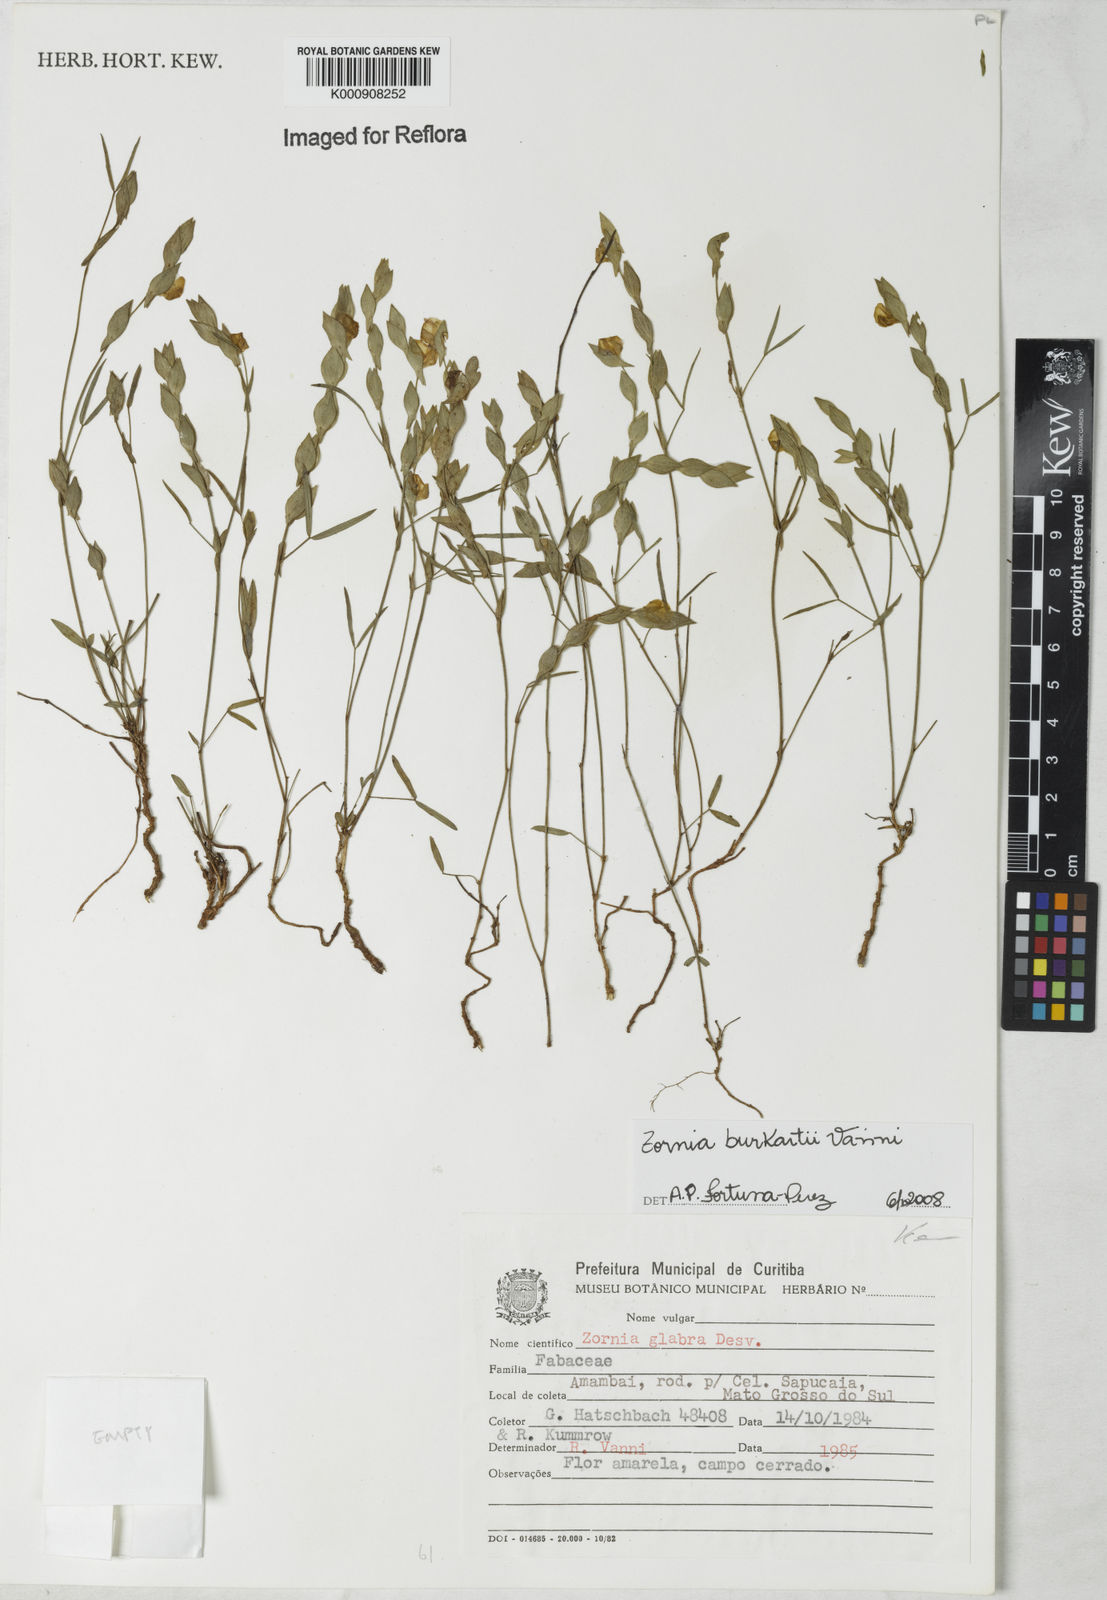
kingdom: Plantae
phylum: Tracheophyta
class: Magnoliopsida
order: Fabales
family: Fabaceae
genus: Zornia
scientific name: Zornia burkartii
